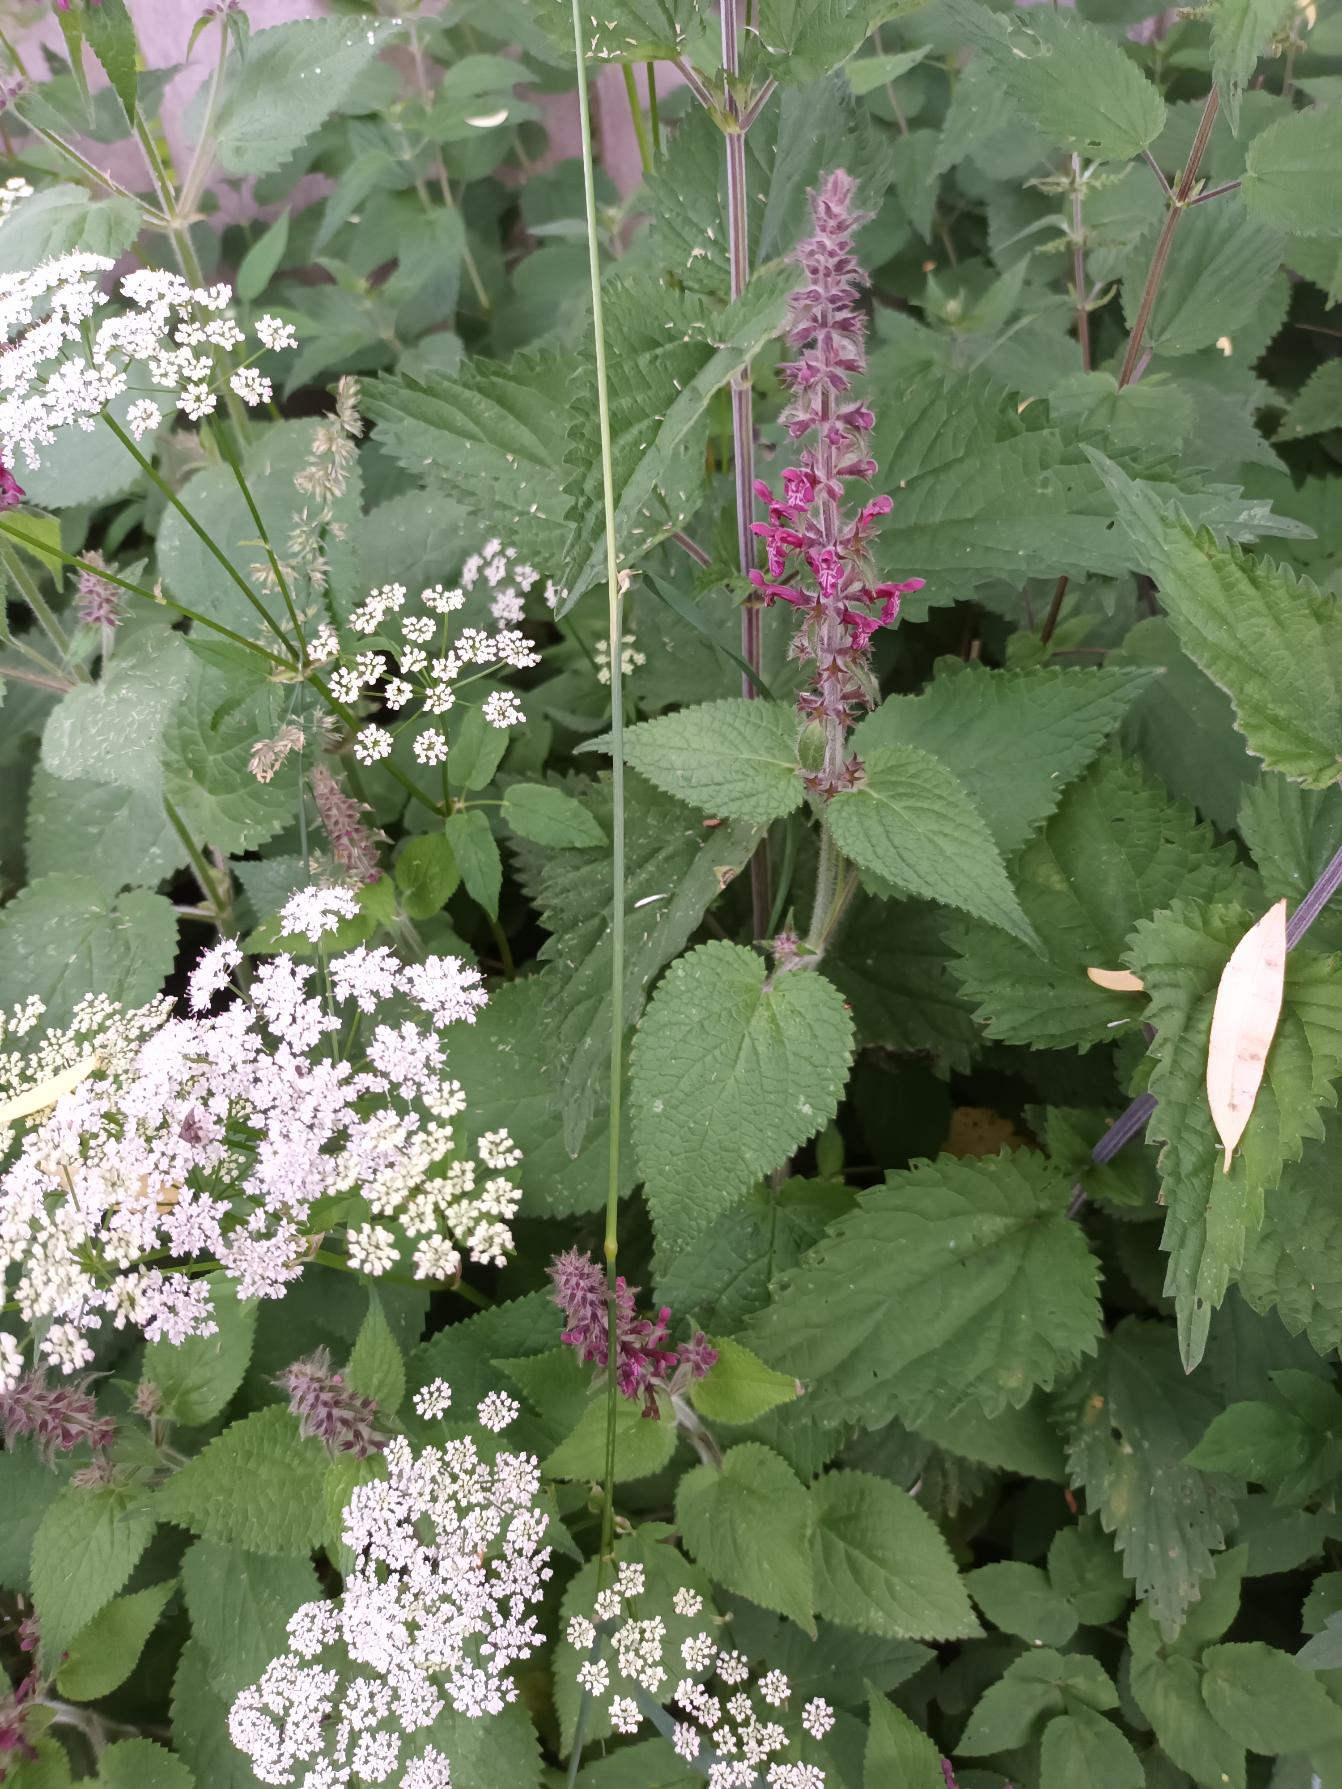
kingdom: Plantae
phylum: Tracheophyta
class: Magnoliopsida
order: Lamiales
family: Lamiaceae
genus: Stachys
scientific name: Stachys sylvatica
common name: Skov-galtetand
